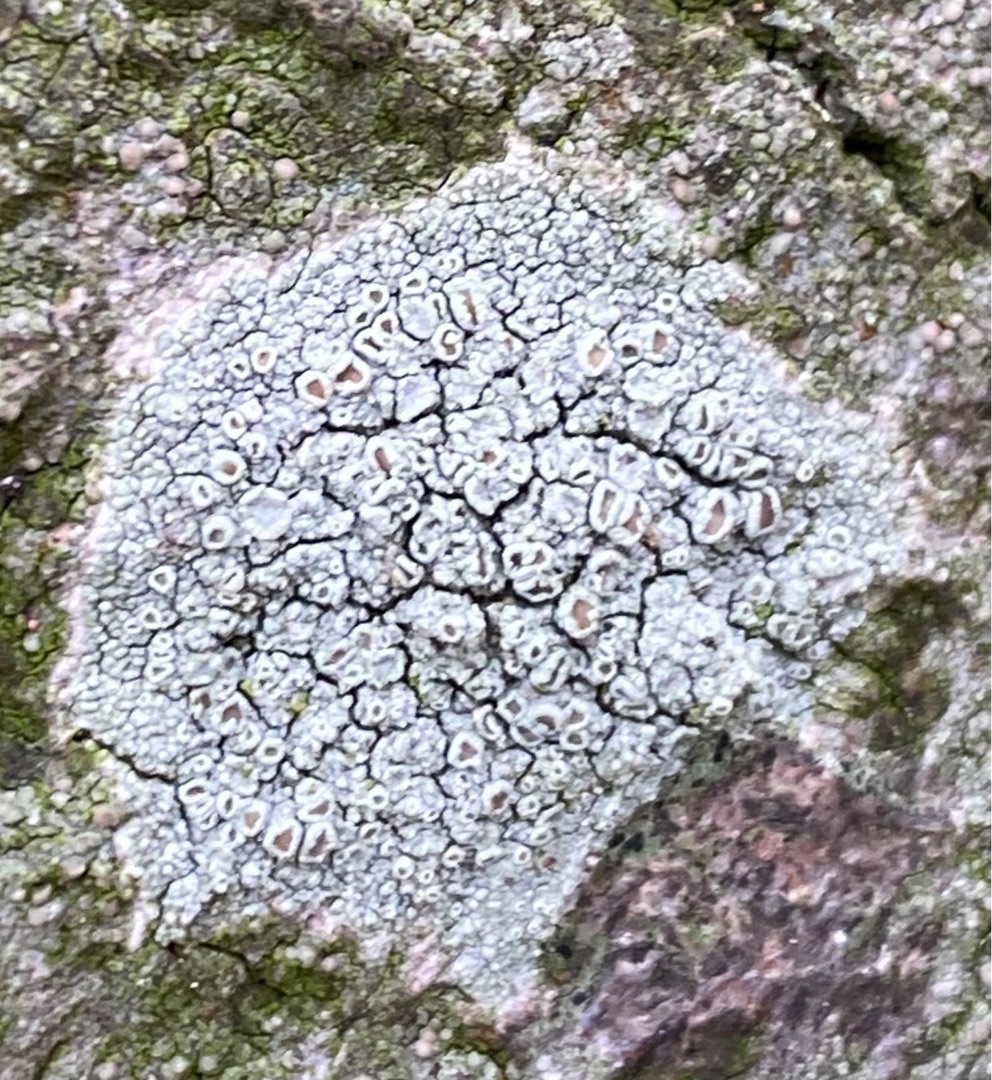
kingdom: Fungi
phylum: Ascomycota
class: Lecanoromycetes
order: Lecanorales
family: Lecanoraceae
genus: Lecanora
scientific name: Lecanora
